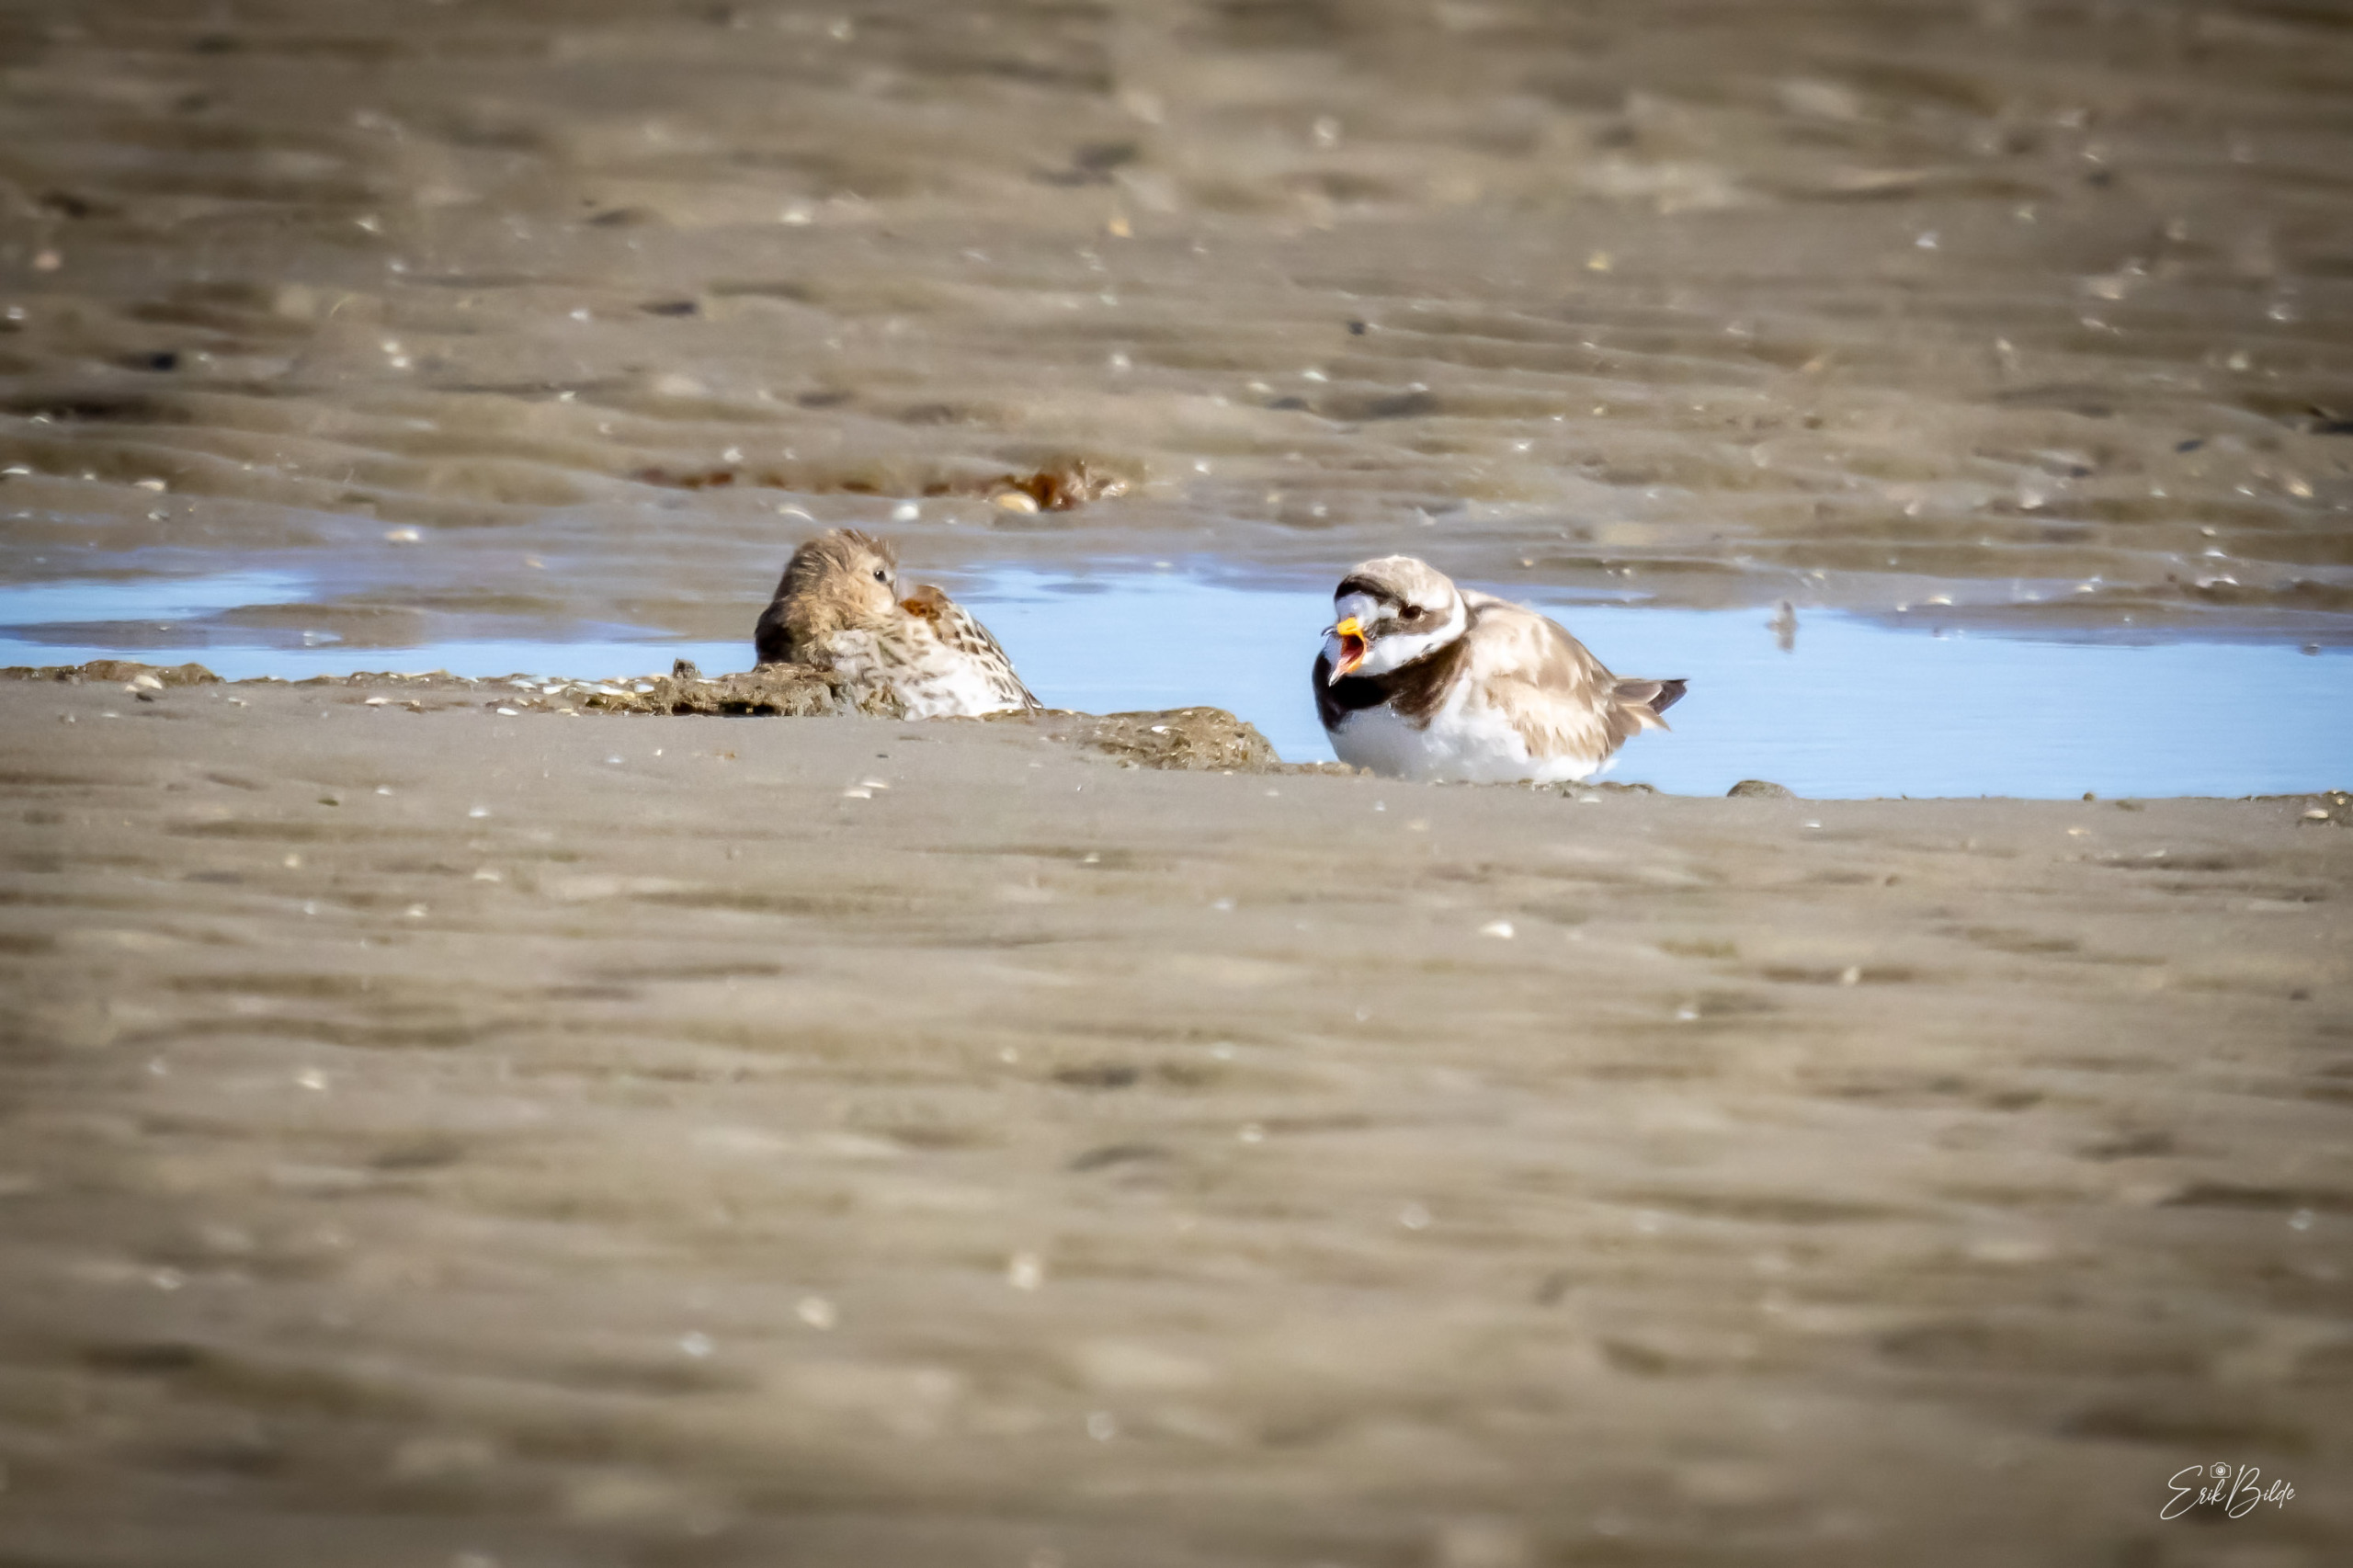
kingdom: Animalia
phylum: Chordata
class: Aves
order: Charadriiformes
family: Charadriidae
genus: Charadrius
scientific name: Charadrius hiaticula
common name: Stor præstekrave
